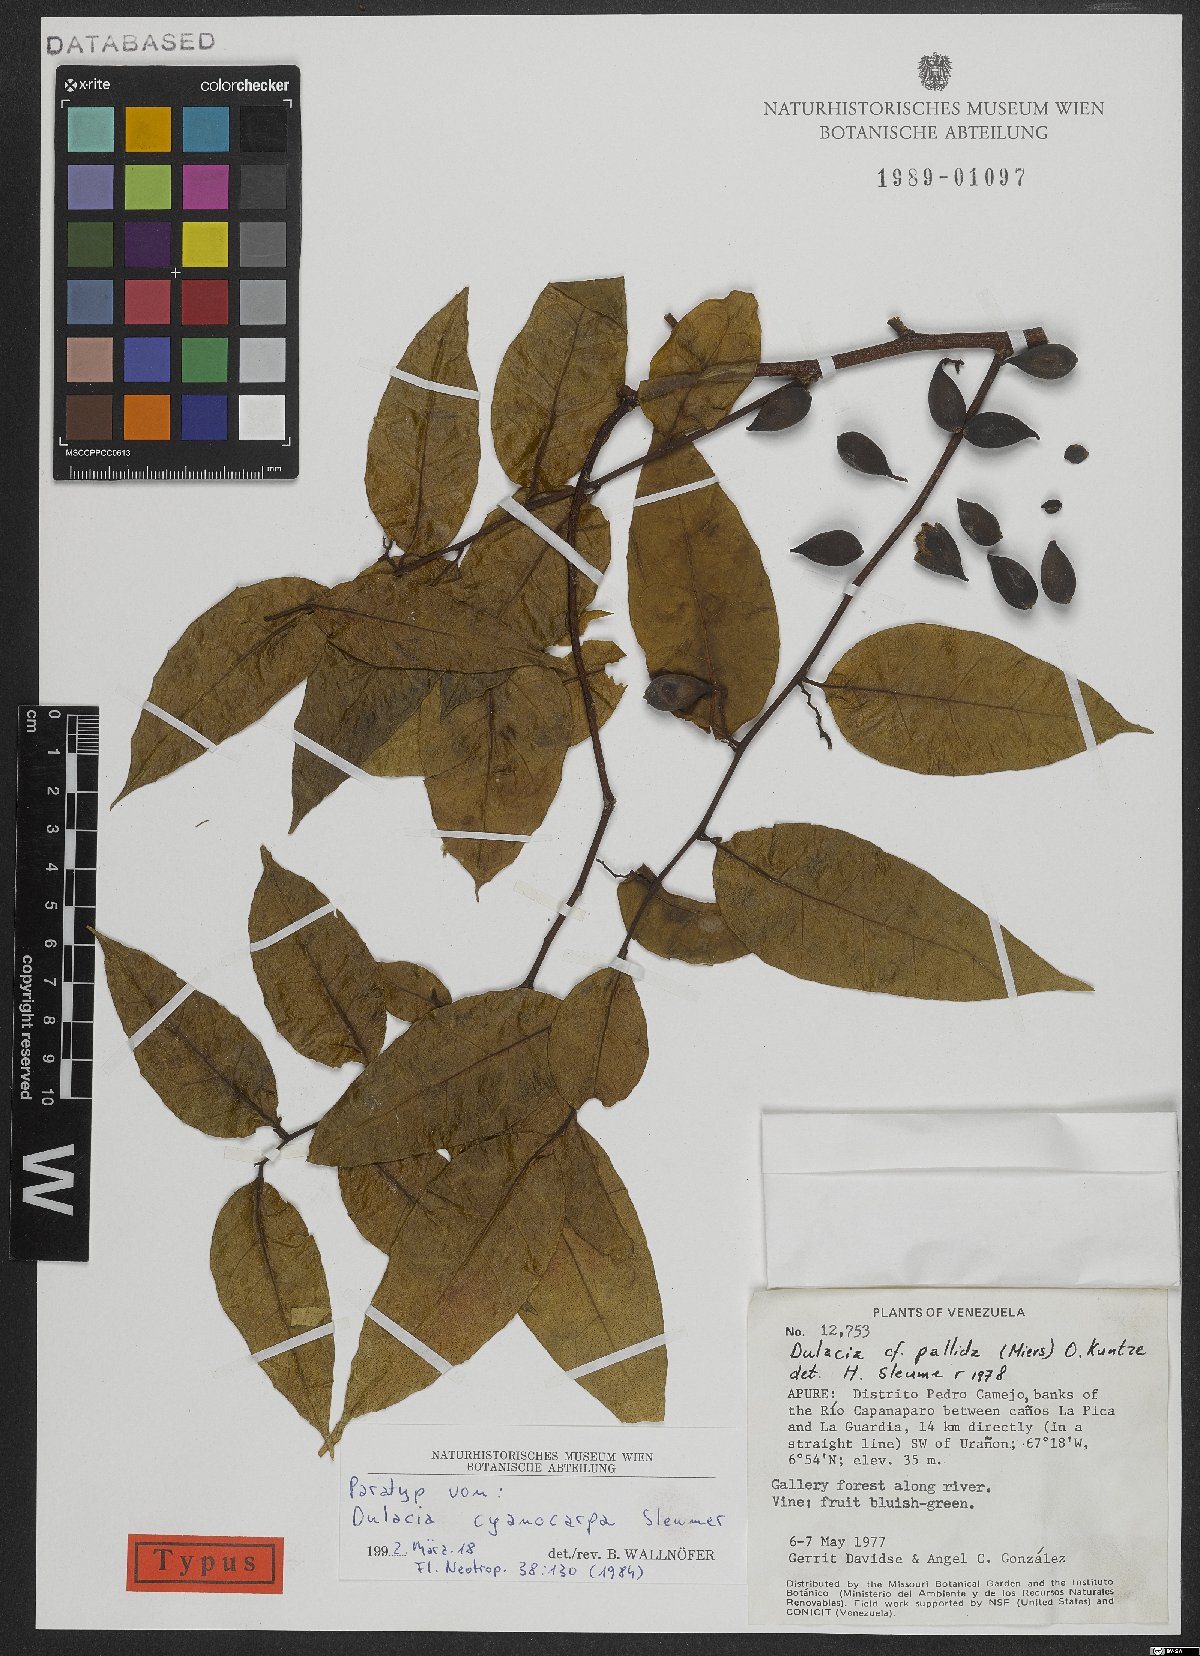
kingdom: Plantae
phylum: Tracheophyta
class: Magnoliopsida
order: Santalales
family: Olacaceae
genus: Dulacia
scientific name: Dulacia cyanocarpa
